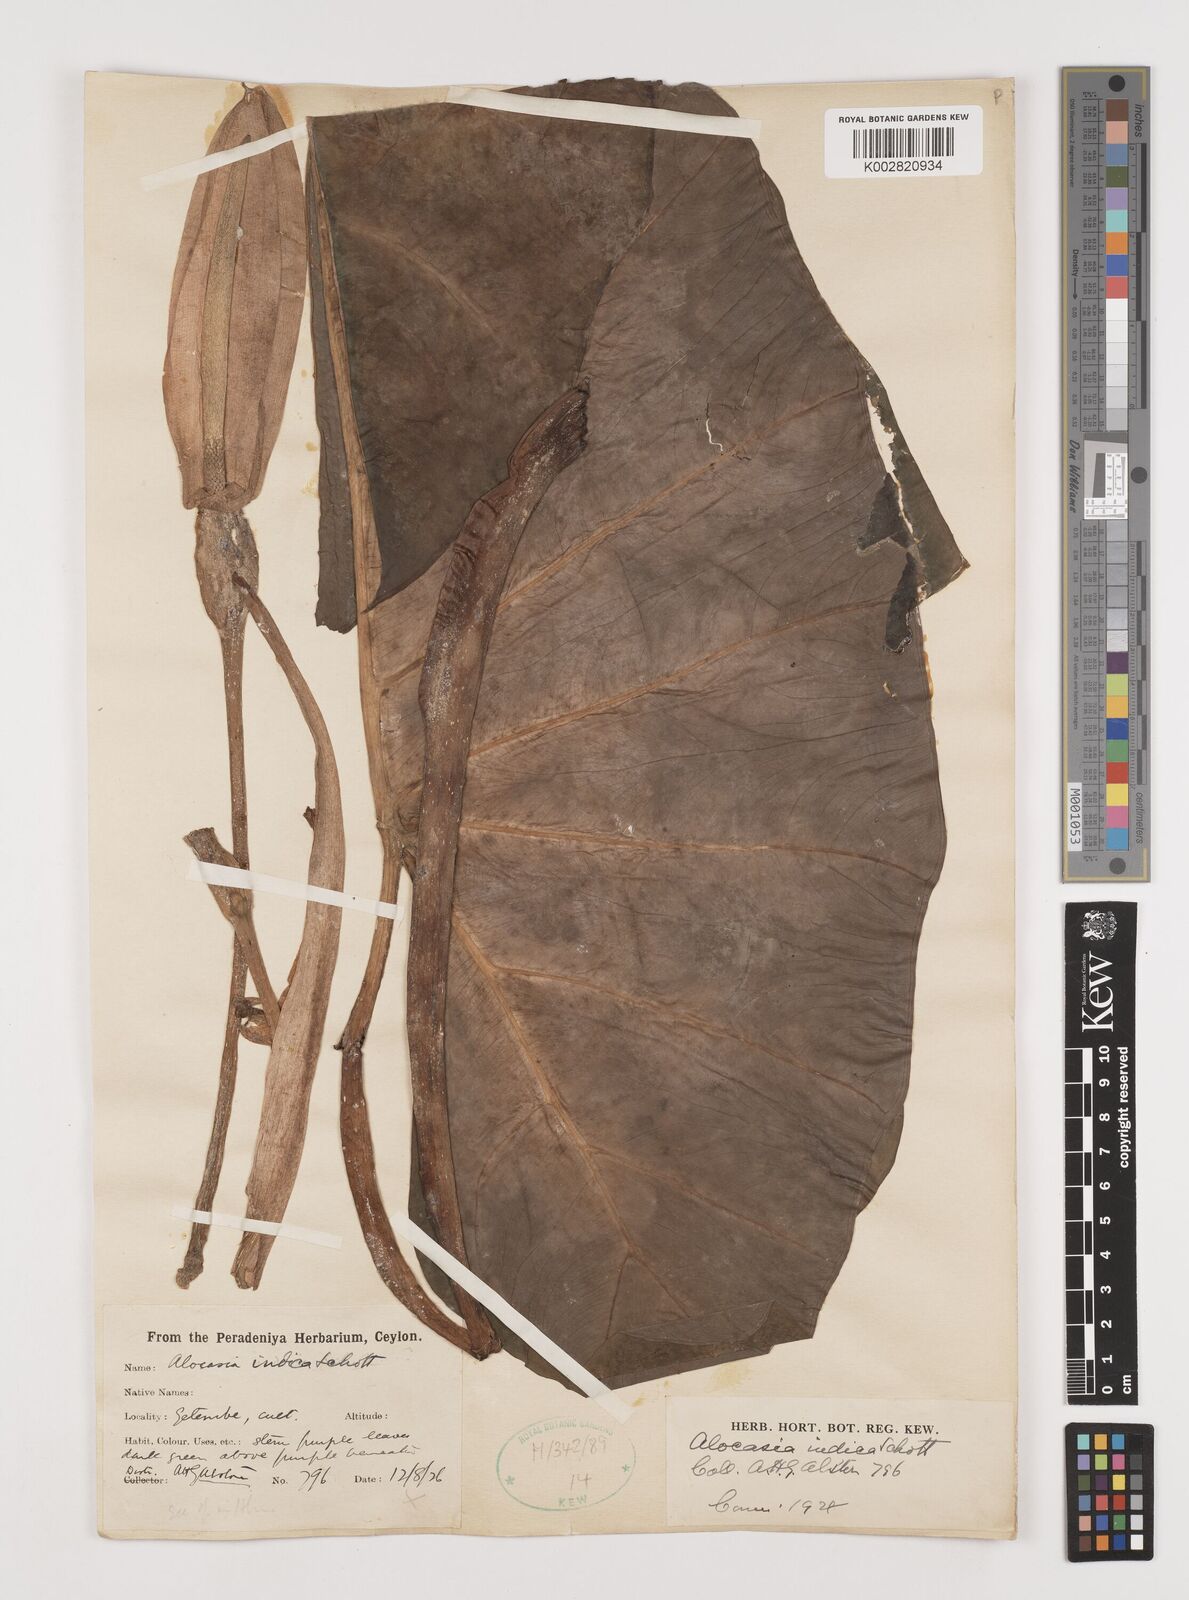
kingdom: Plantae
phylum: Tracheophyta
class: Liliopsida
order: Alismatales
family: Araceae
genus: Alocasia
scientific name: Alocasia macrorrhizos
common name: Giant taro
